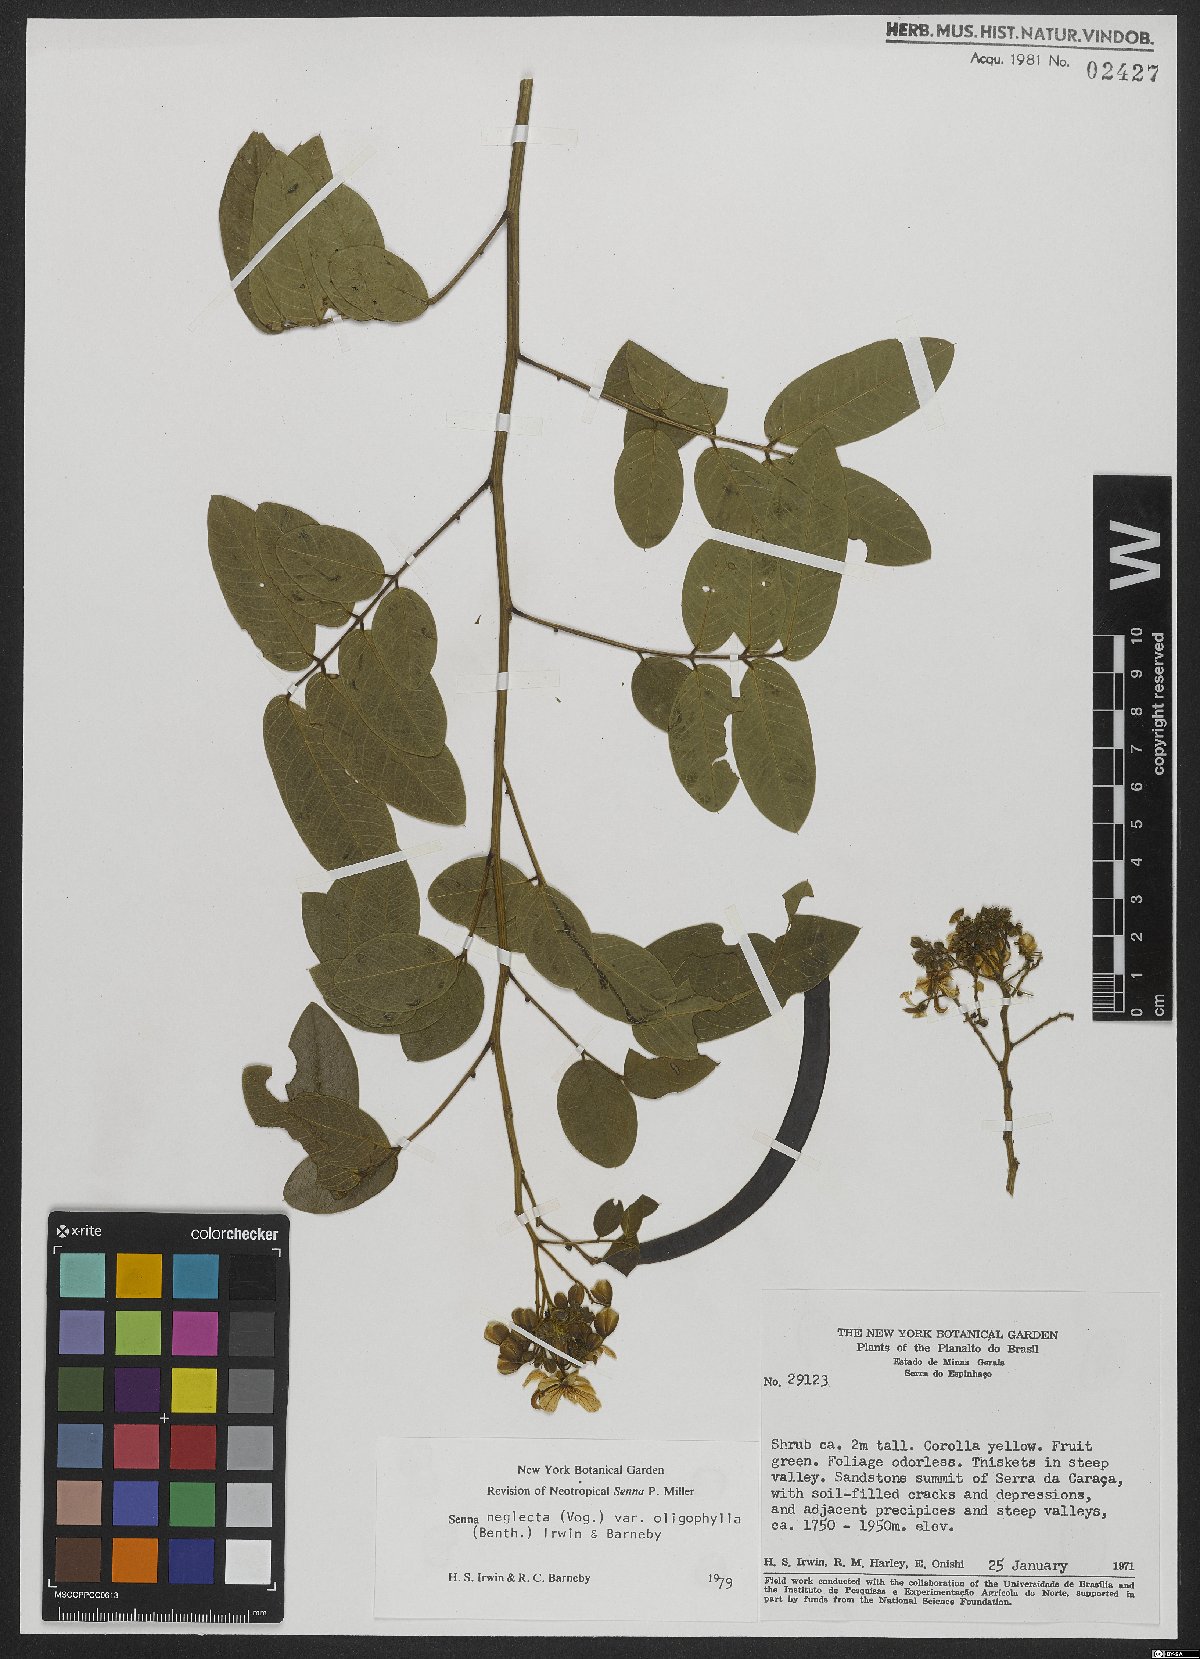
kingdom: Plantae
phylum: Tracheophyta
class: Magnoliopsida
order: Fabales
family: Fabaceae
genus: Senna
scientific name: Senna neglecta
